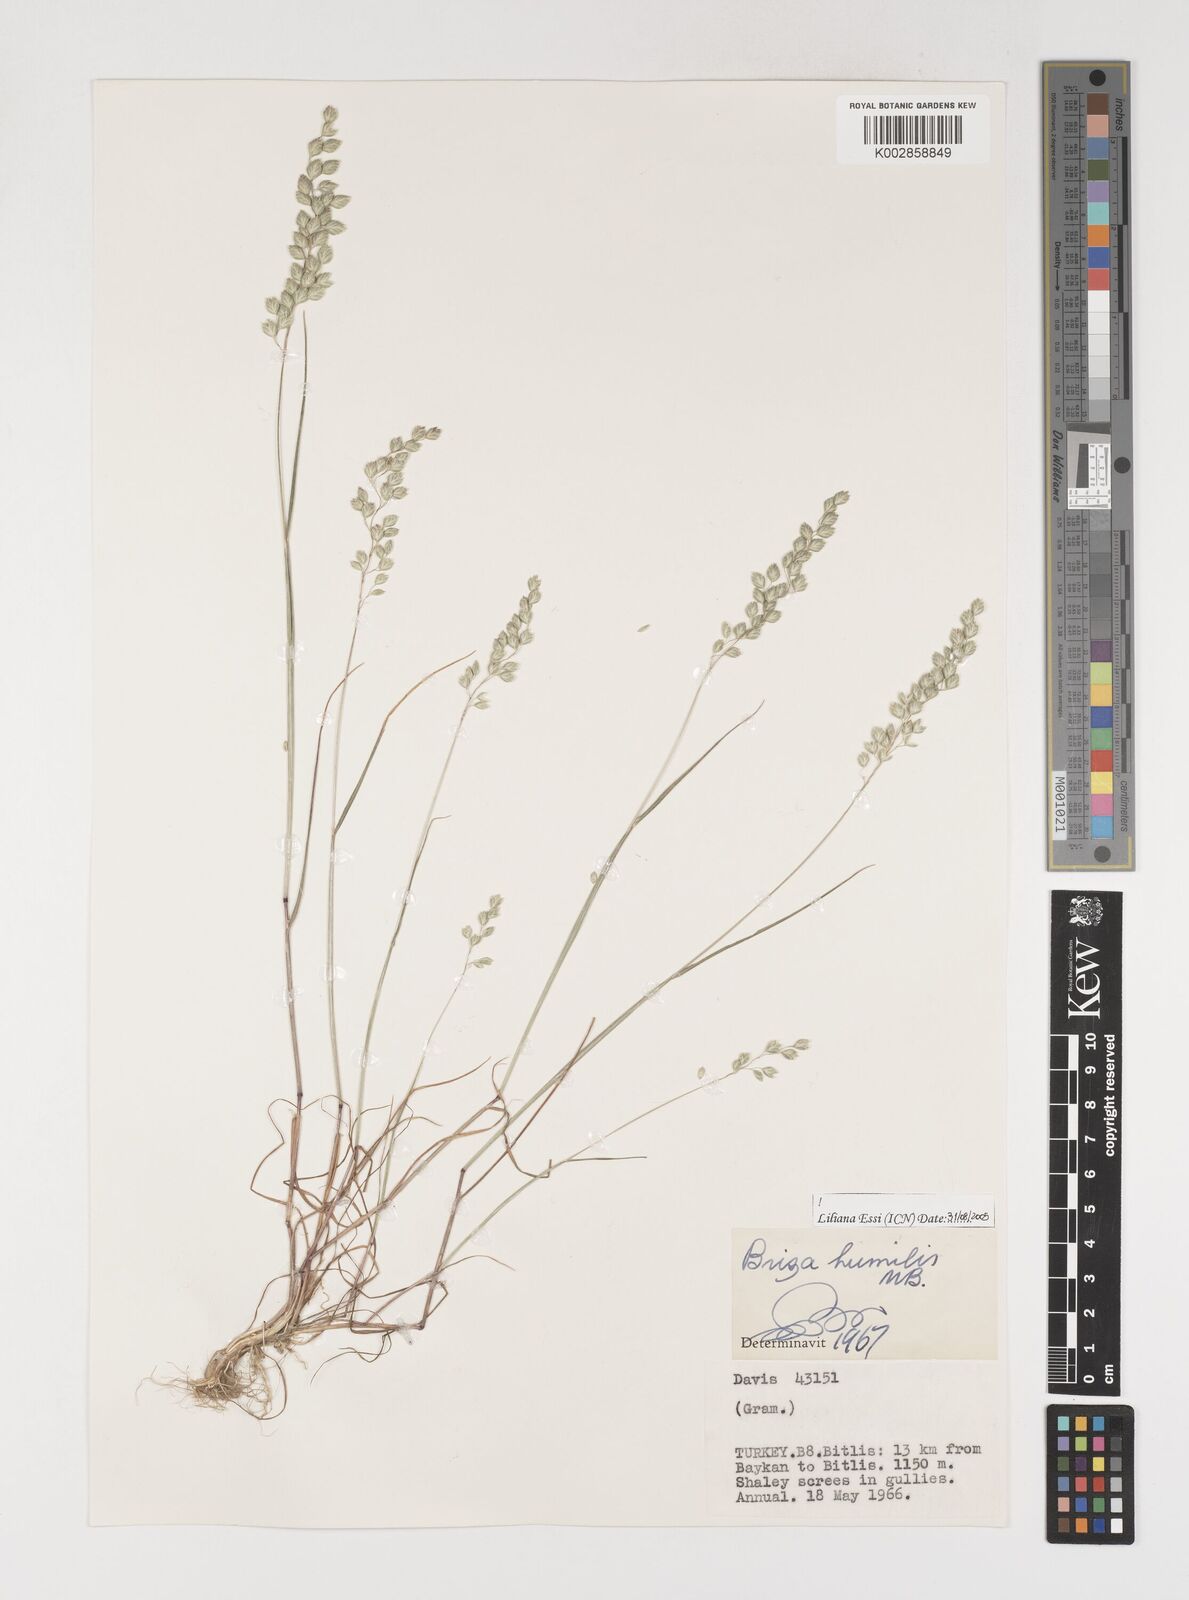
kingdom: Plantae
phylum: Tracheophyta
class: Liliopsida
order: Poales
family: Poaceae
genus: Briza
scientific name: Briza humilis
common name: Spiked quaking grass
